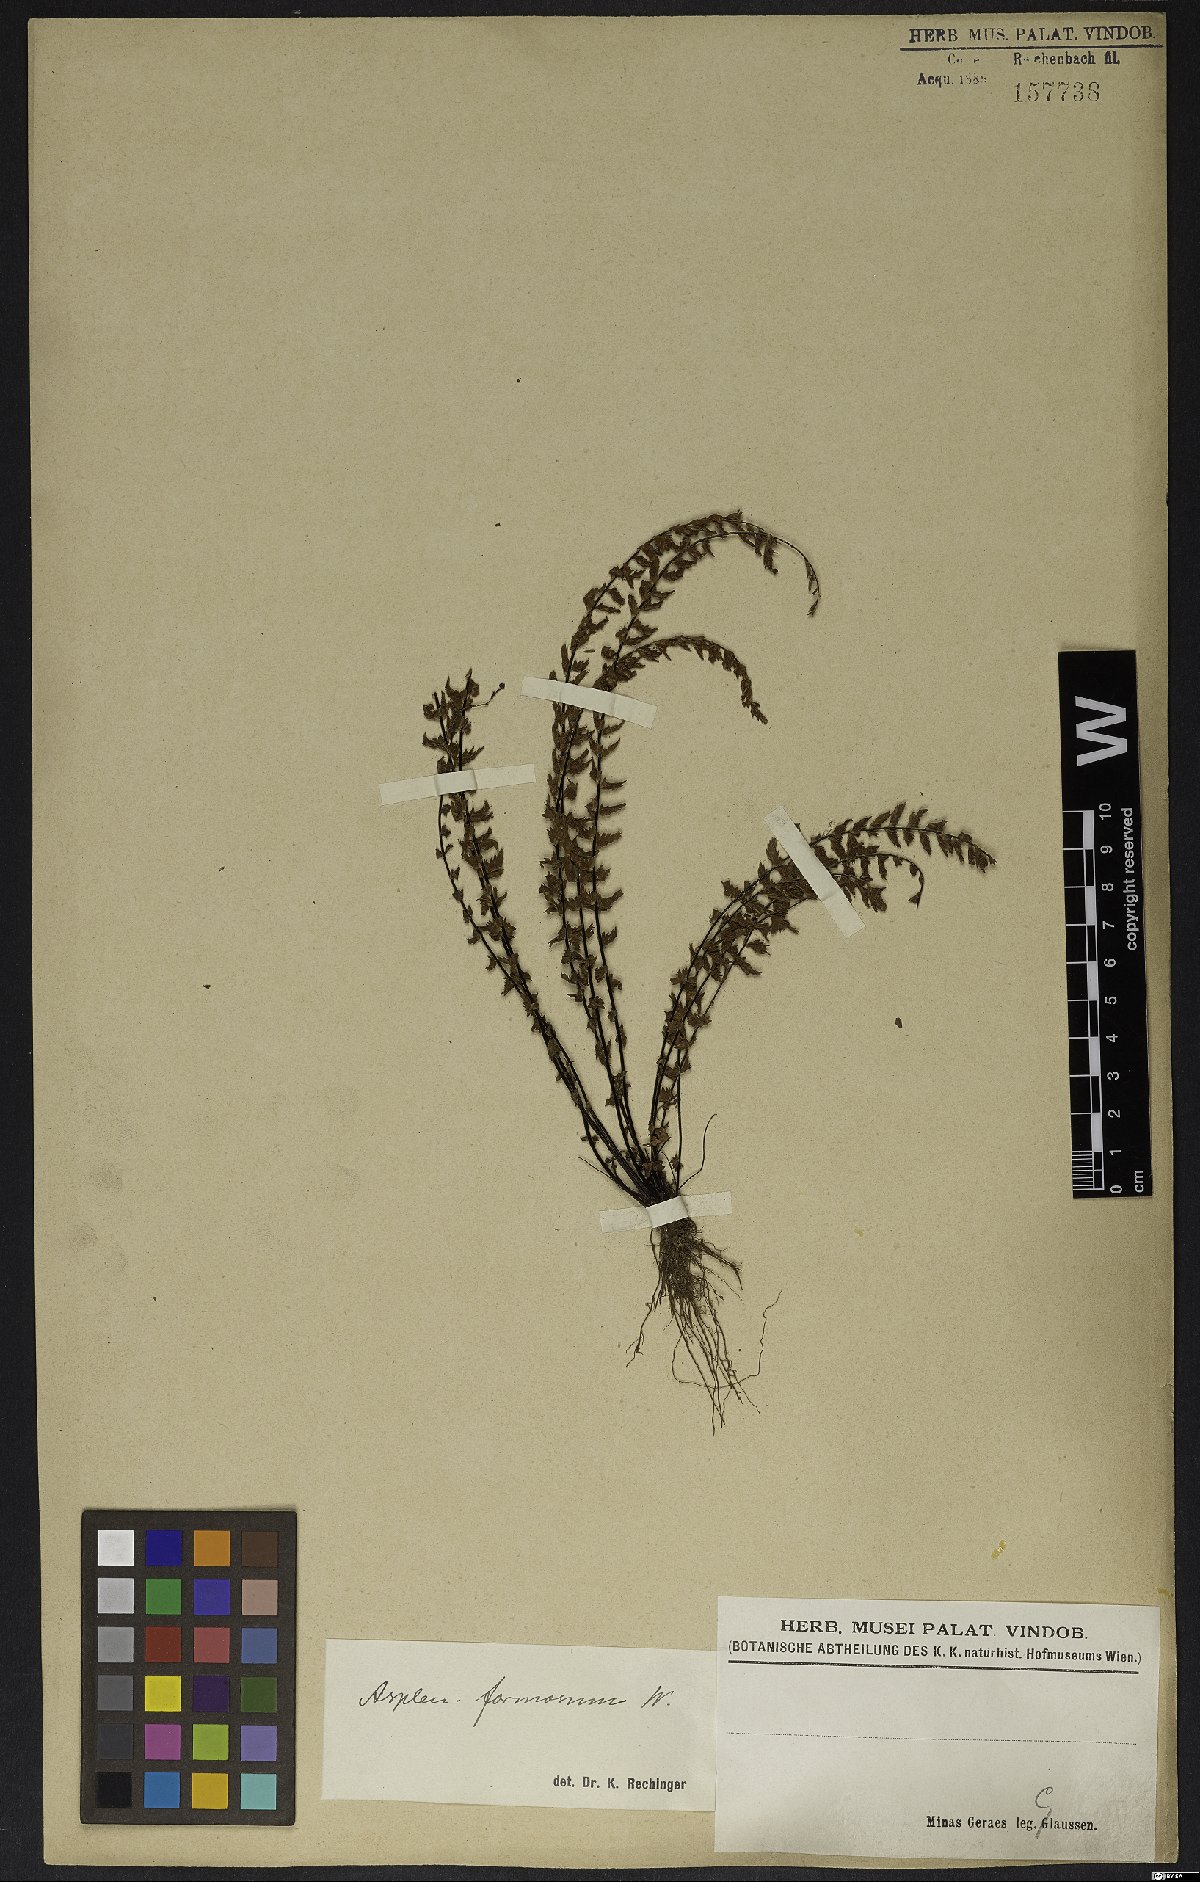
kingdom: Plantae
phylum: Tracheophyta
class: Polypodiopsida
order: Polypodiales
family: Aspleniaceae
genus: Asplenium
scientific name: Asplenium formosum
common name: Showy spleenwort
